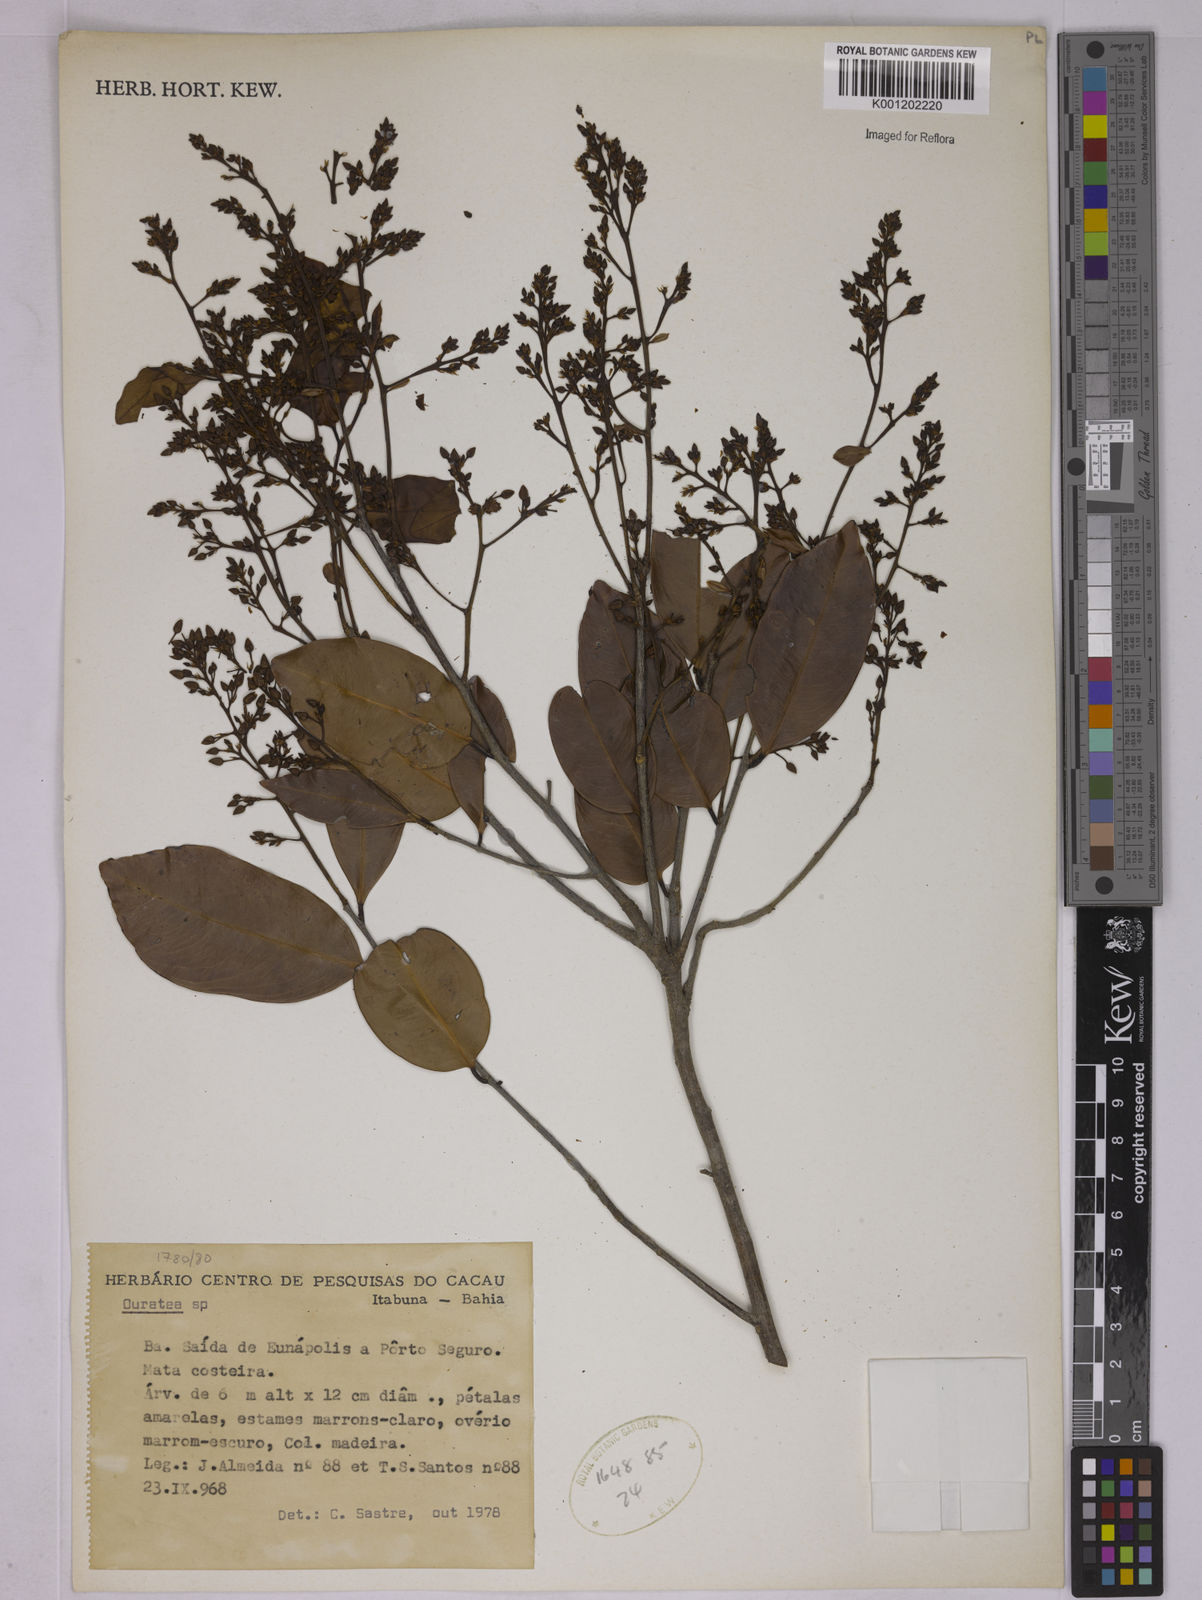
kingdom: Plantae
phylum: Tracheophyta
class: Magnoliopsida
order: Malpighiales
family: Ochnaceae
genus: Ouratea
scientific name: Ouratea
